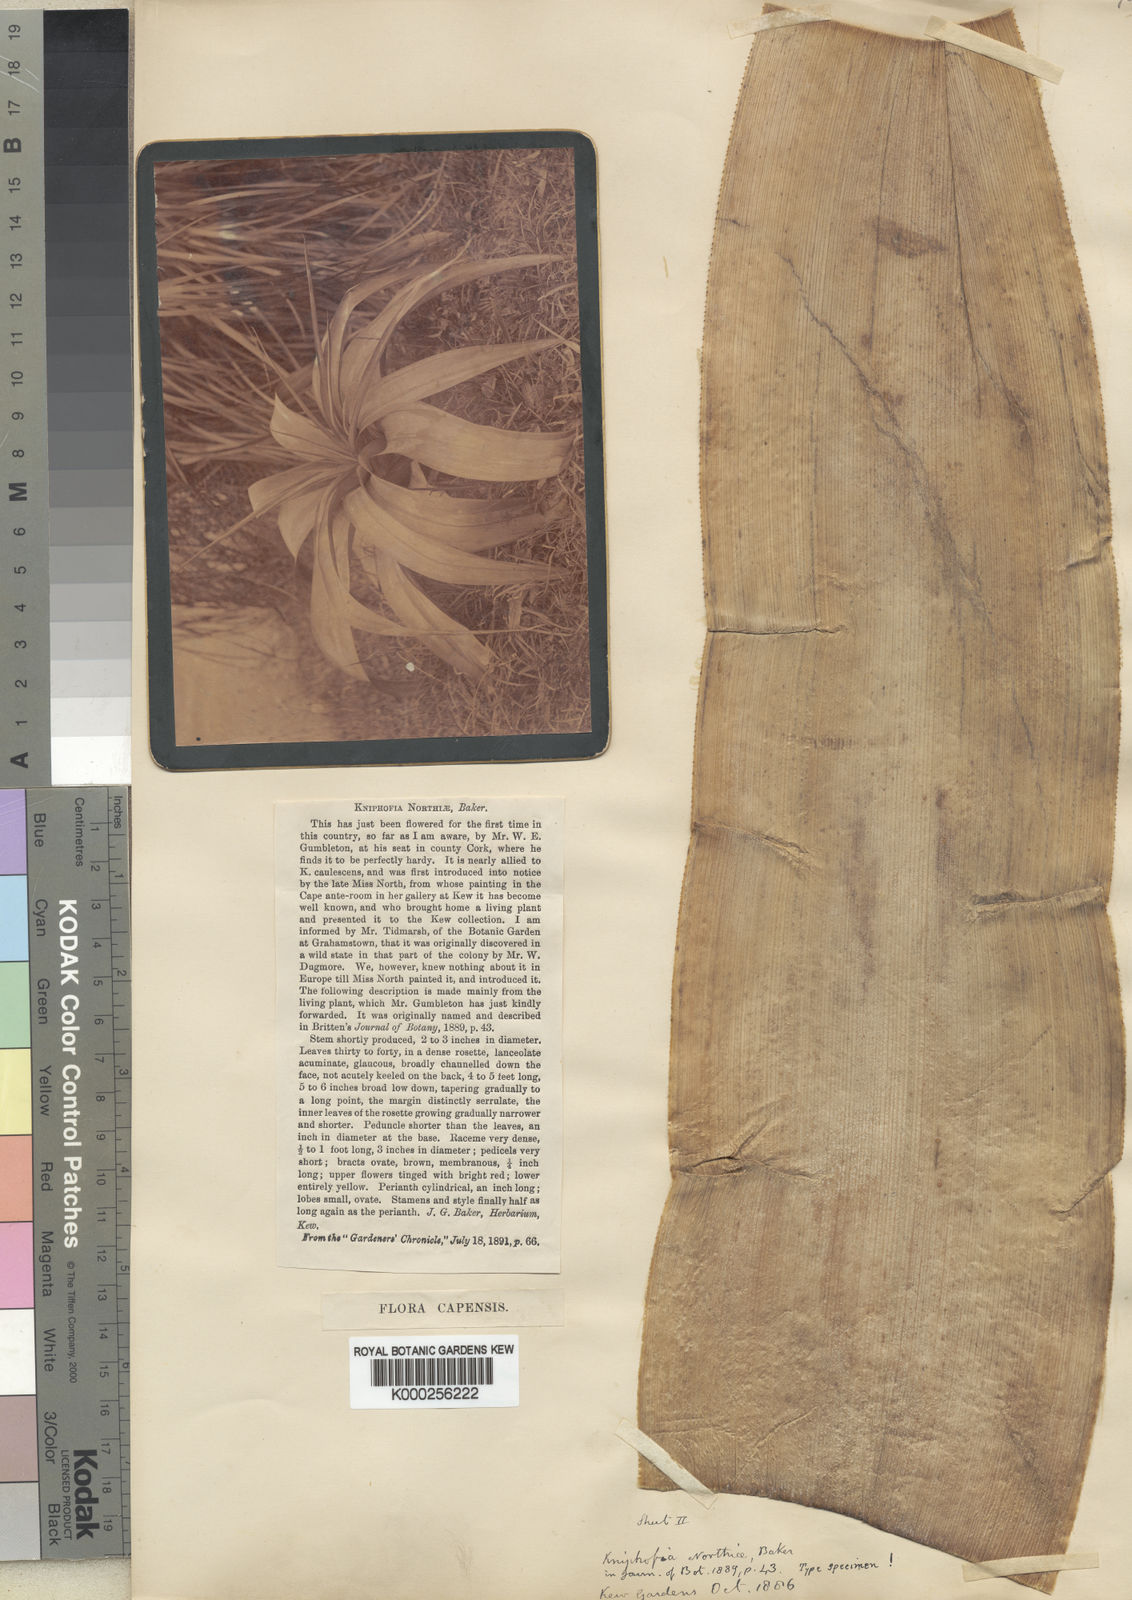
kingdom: Plantae
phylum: Tracheophyta
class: Liliopsida
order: Asparagales
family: Asphodelaceae
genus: Kniphofia
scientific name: Kniphofia northiae
